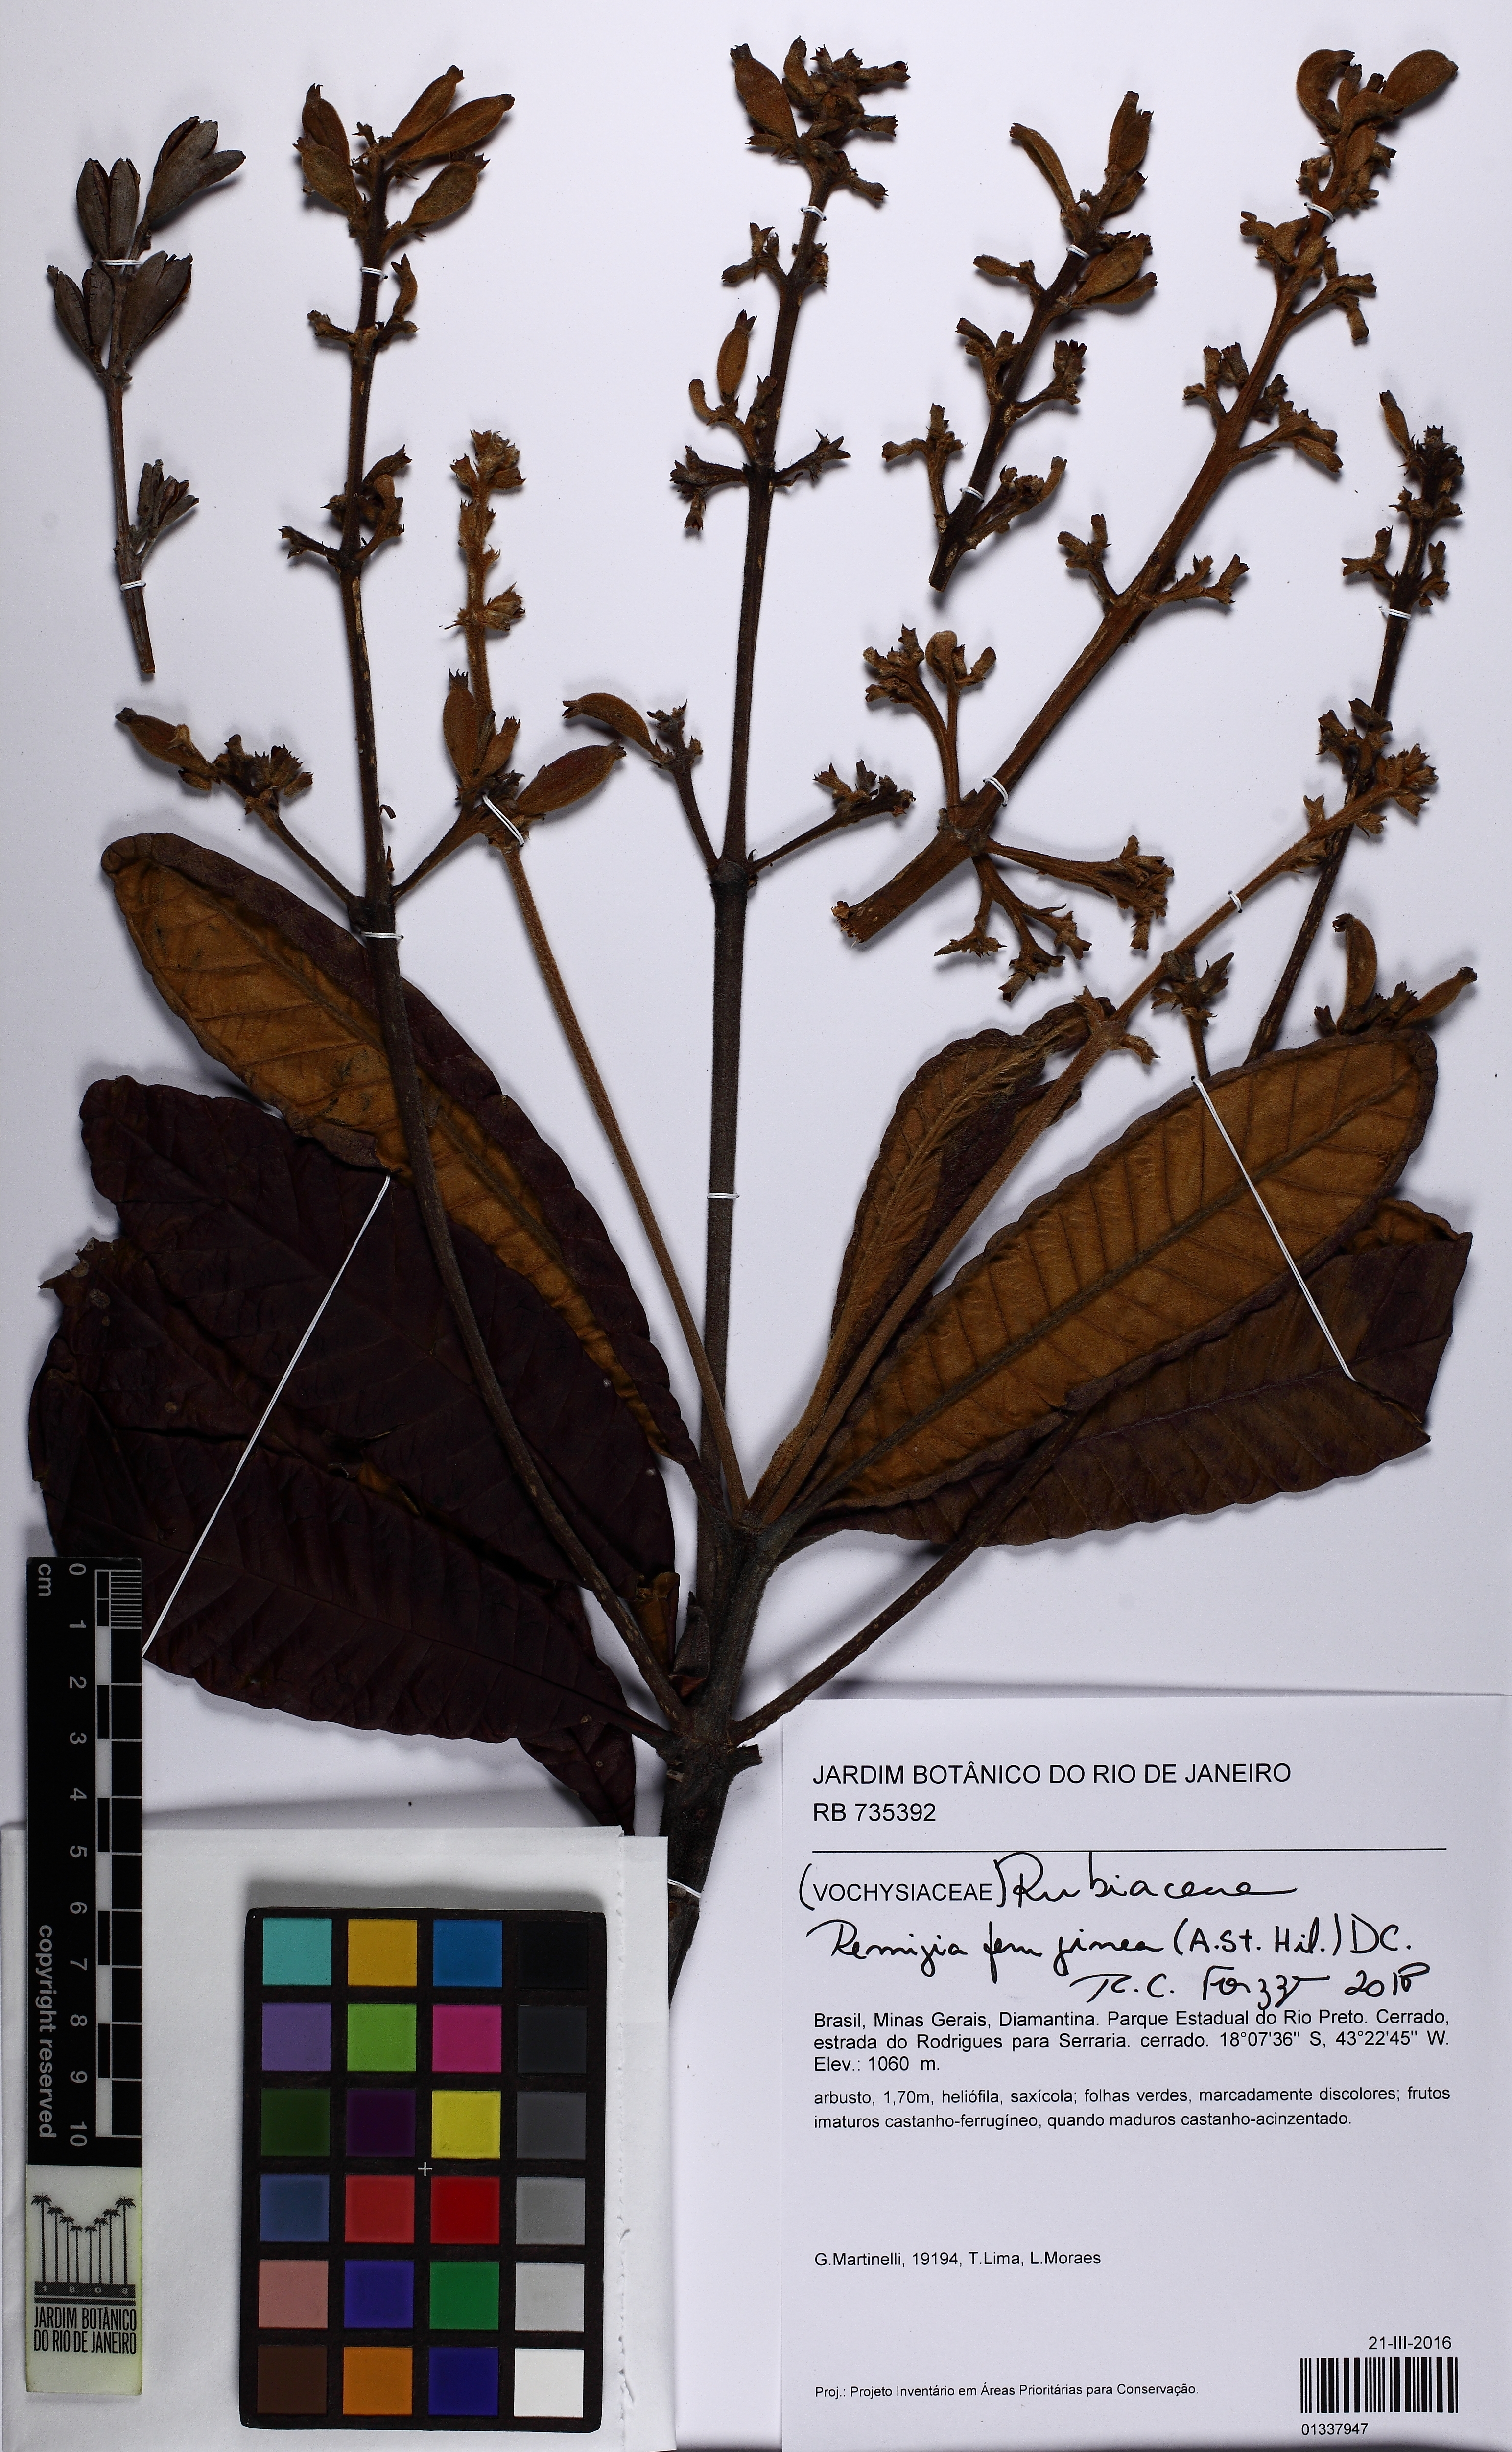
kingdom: Plantae
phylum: Tracheophyta
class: Magnoliopsida
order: Gentianales
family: Rubiaceae
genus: Remijia
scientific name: Remijia ferruginea
